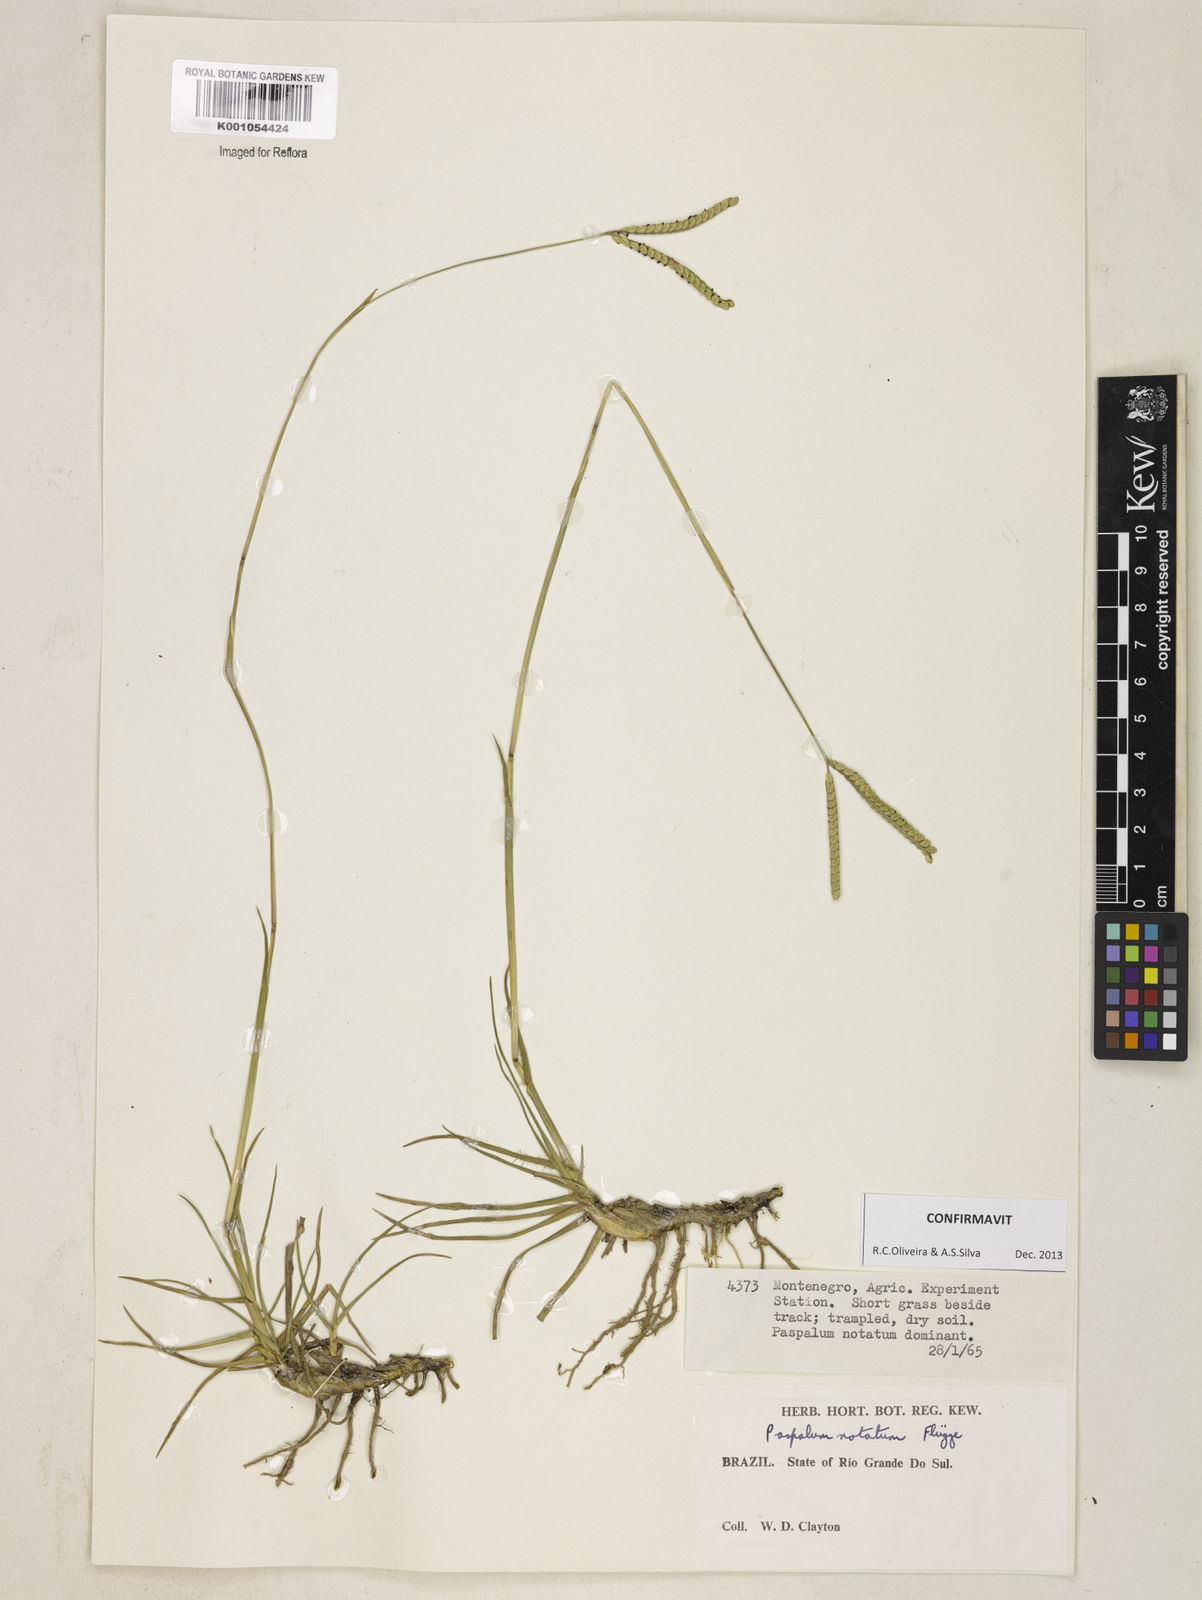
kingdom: Plantae
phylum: Tracheophyta
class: Liliopsida
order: Poales
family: Poaceae
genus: Paspalum
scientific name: Paspalum
